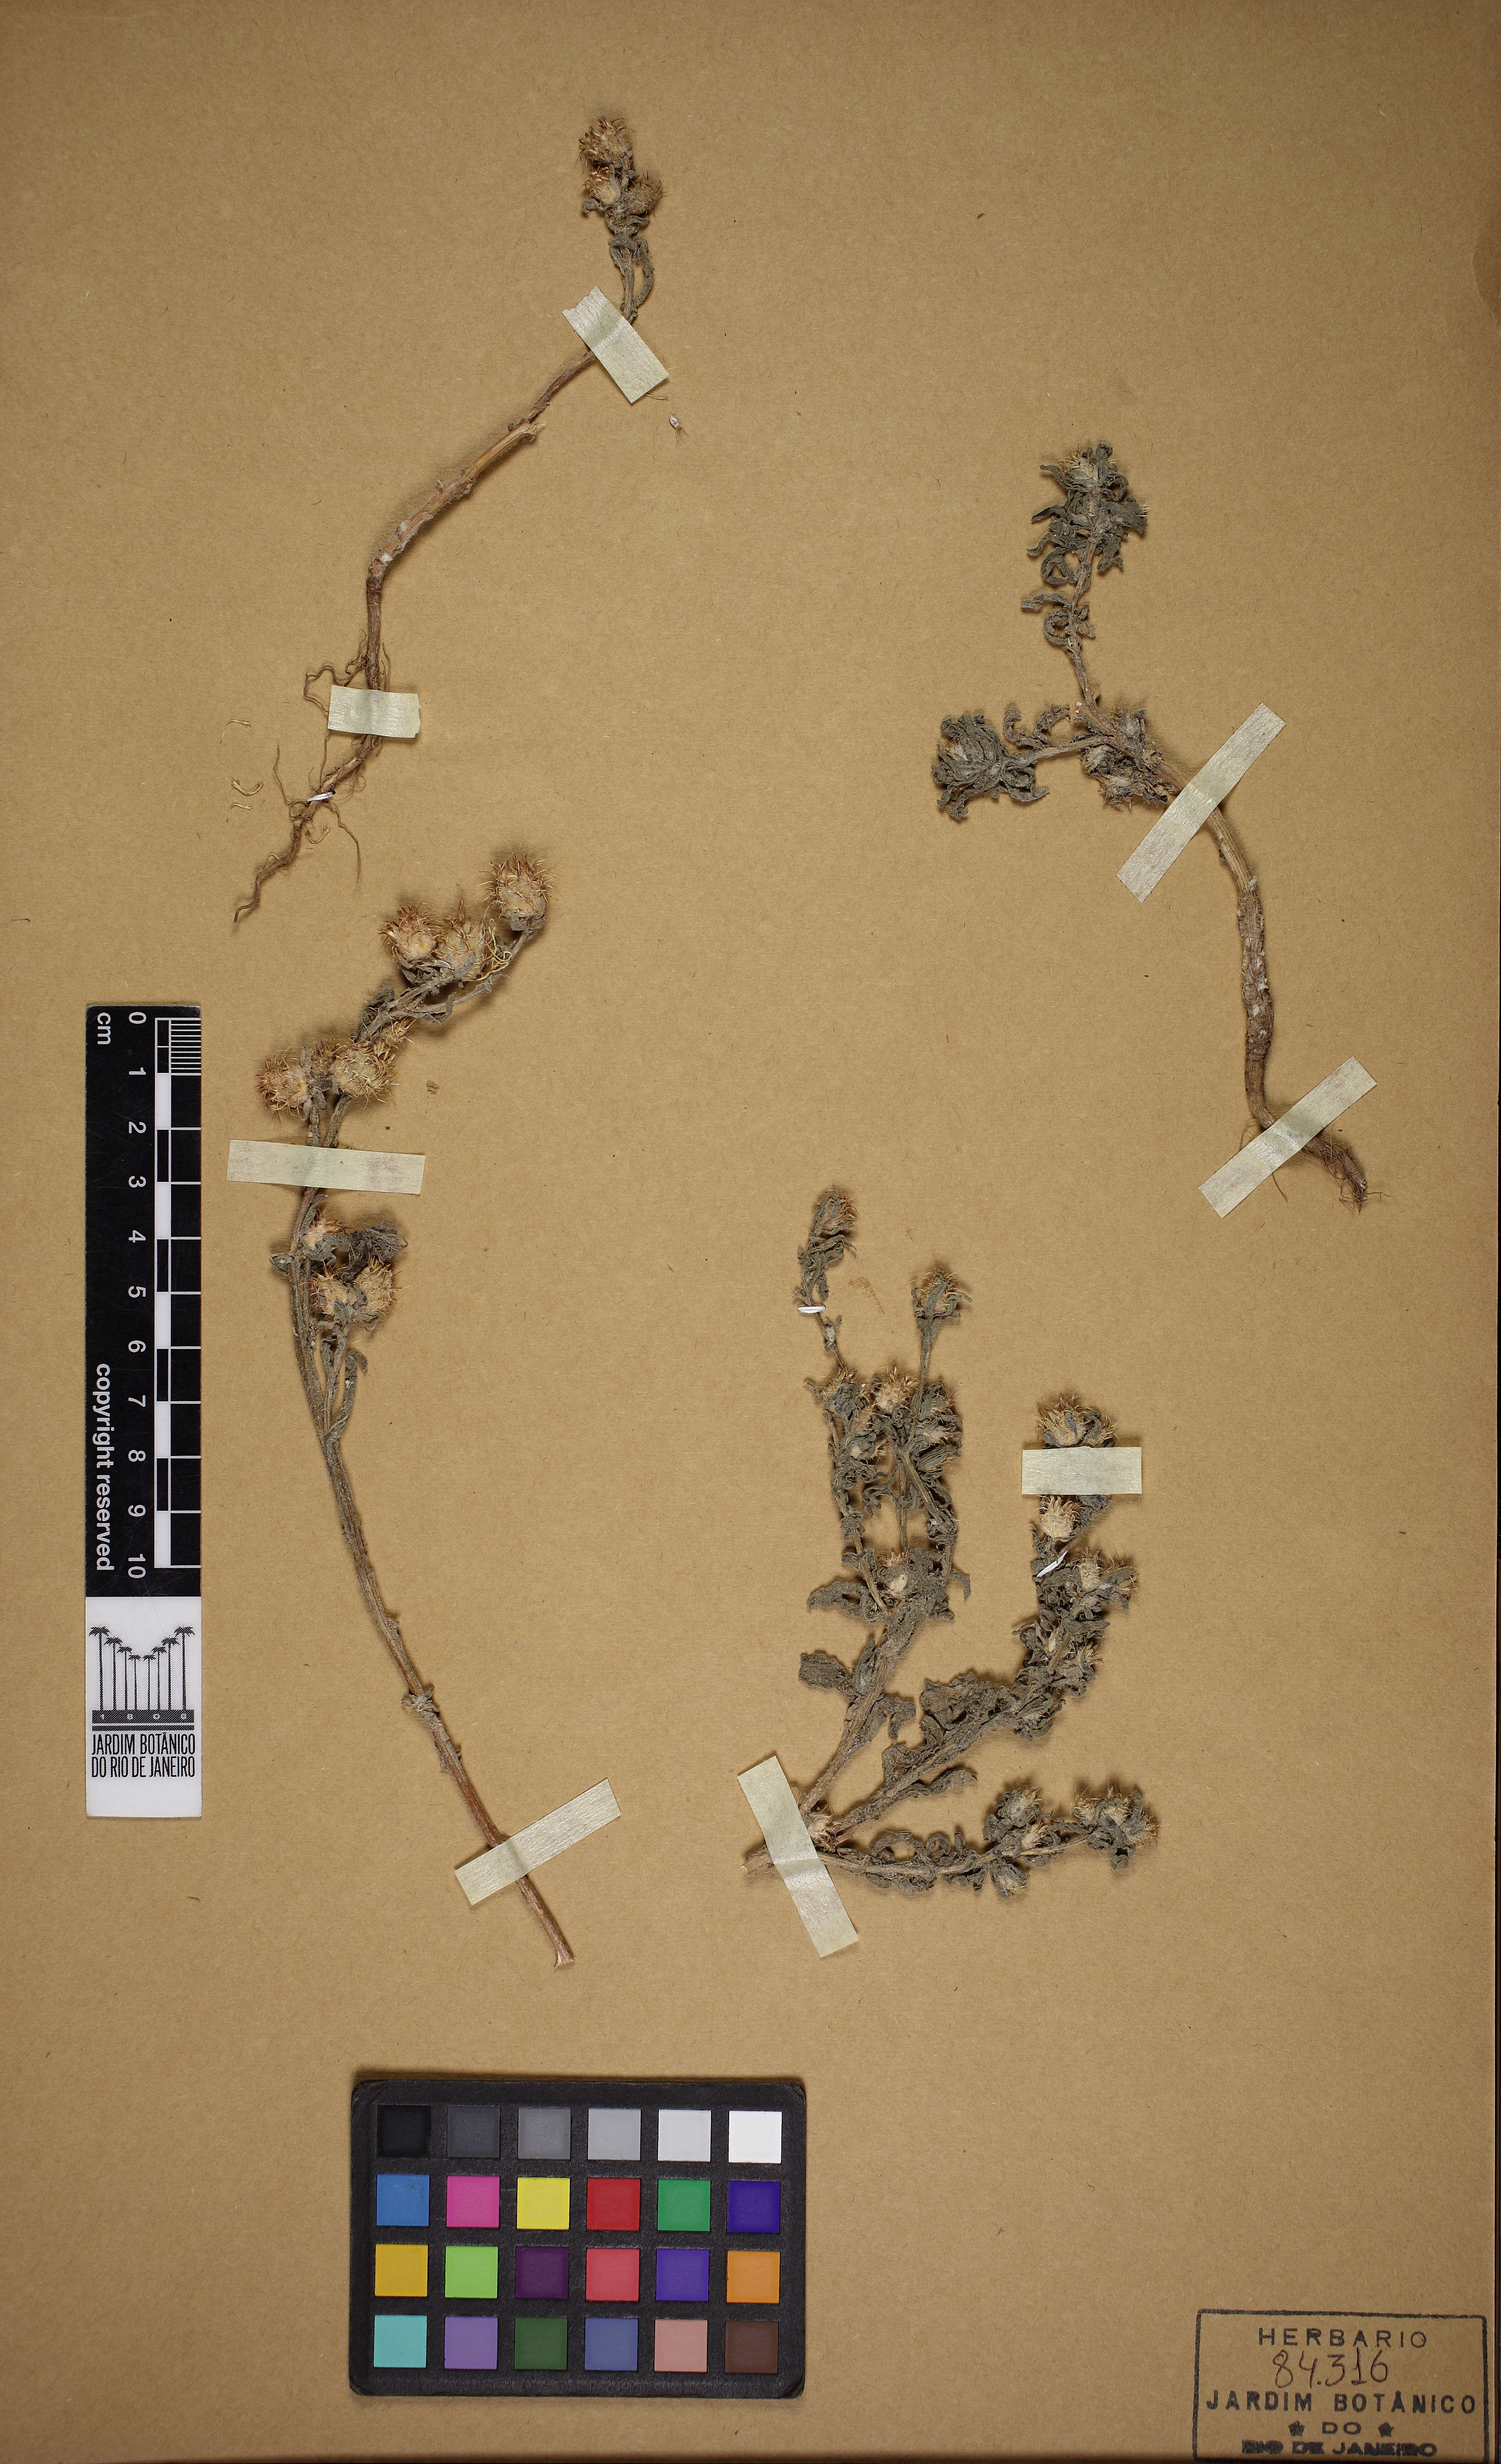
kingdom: Plantae
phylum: Tracheophyta
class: Magnoliopsida
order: Asterales
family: Asteraceae
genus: Centaurea
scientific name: Centaurea
